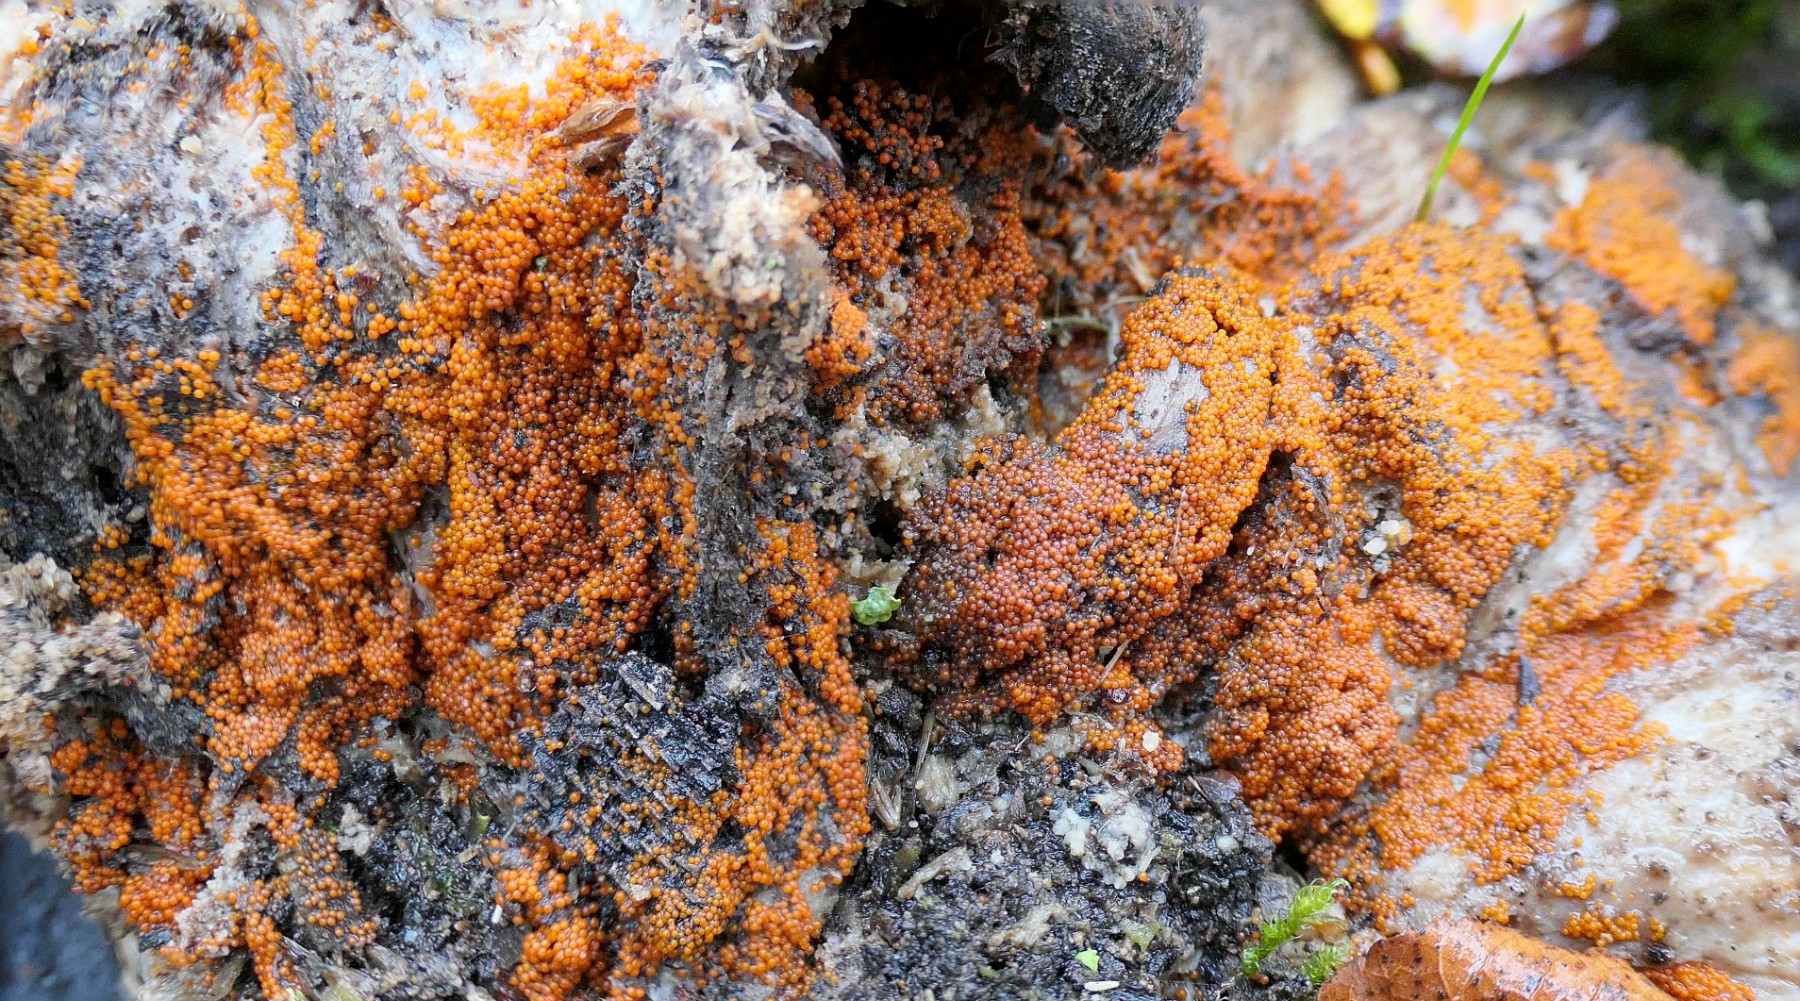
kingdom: Fungi
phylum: Ascomycota
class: Sordariomycetes
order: Hypocreales
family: Nectriaceae
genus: Hydropisphaera
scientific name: Hydropisphaera peziza
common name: skålformet gyldenkerne
